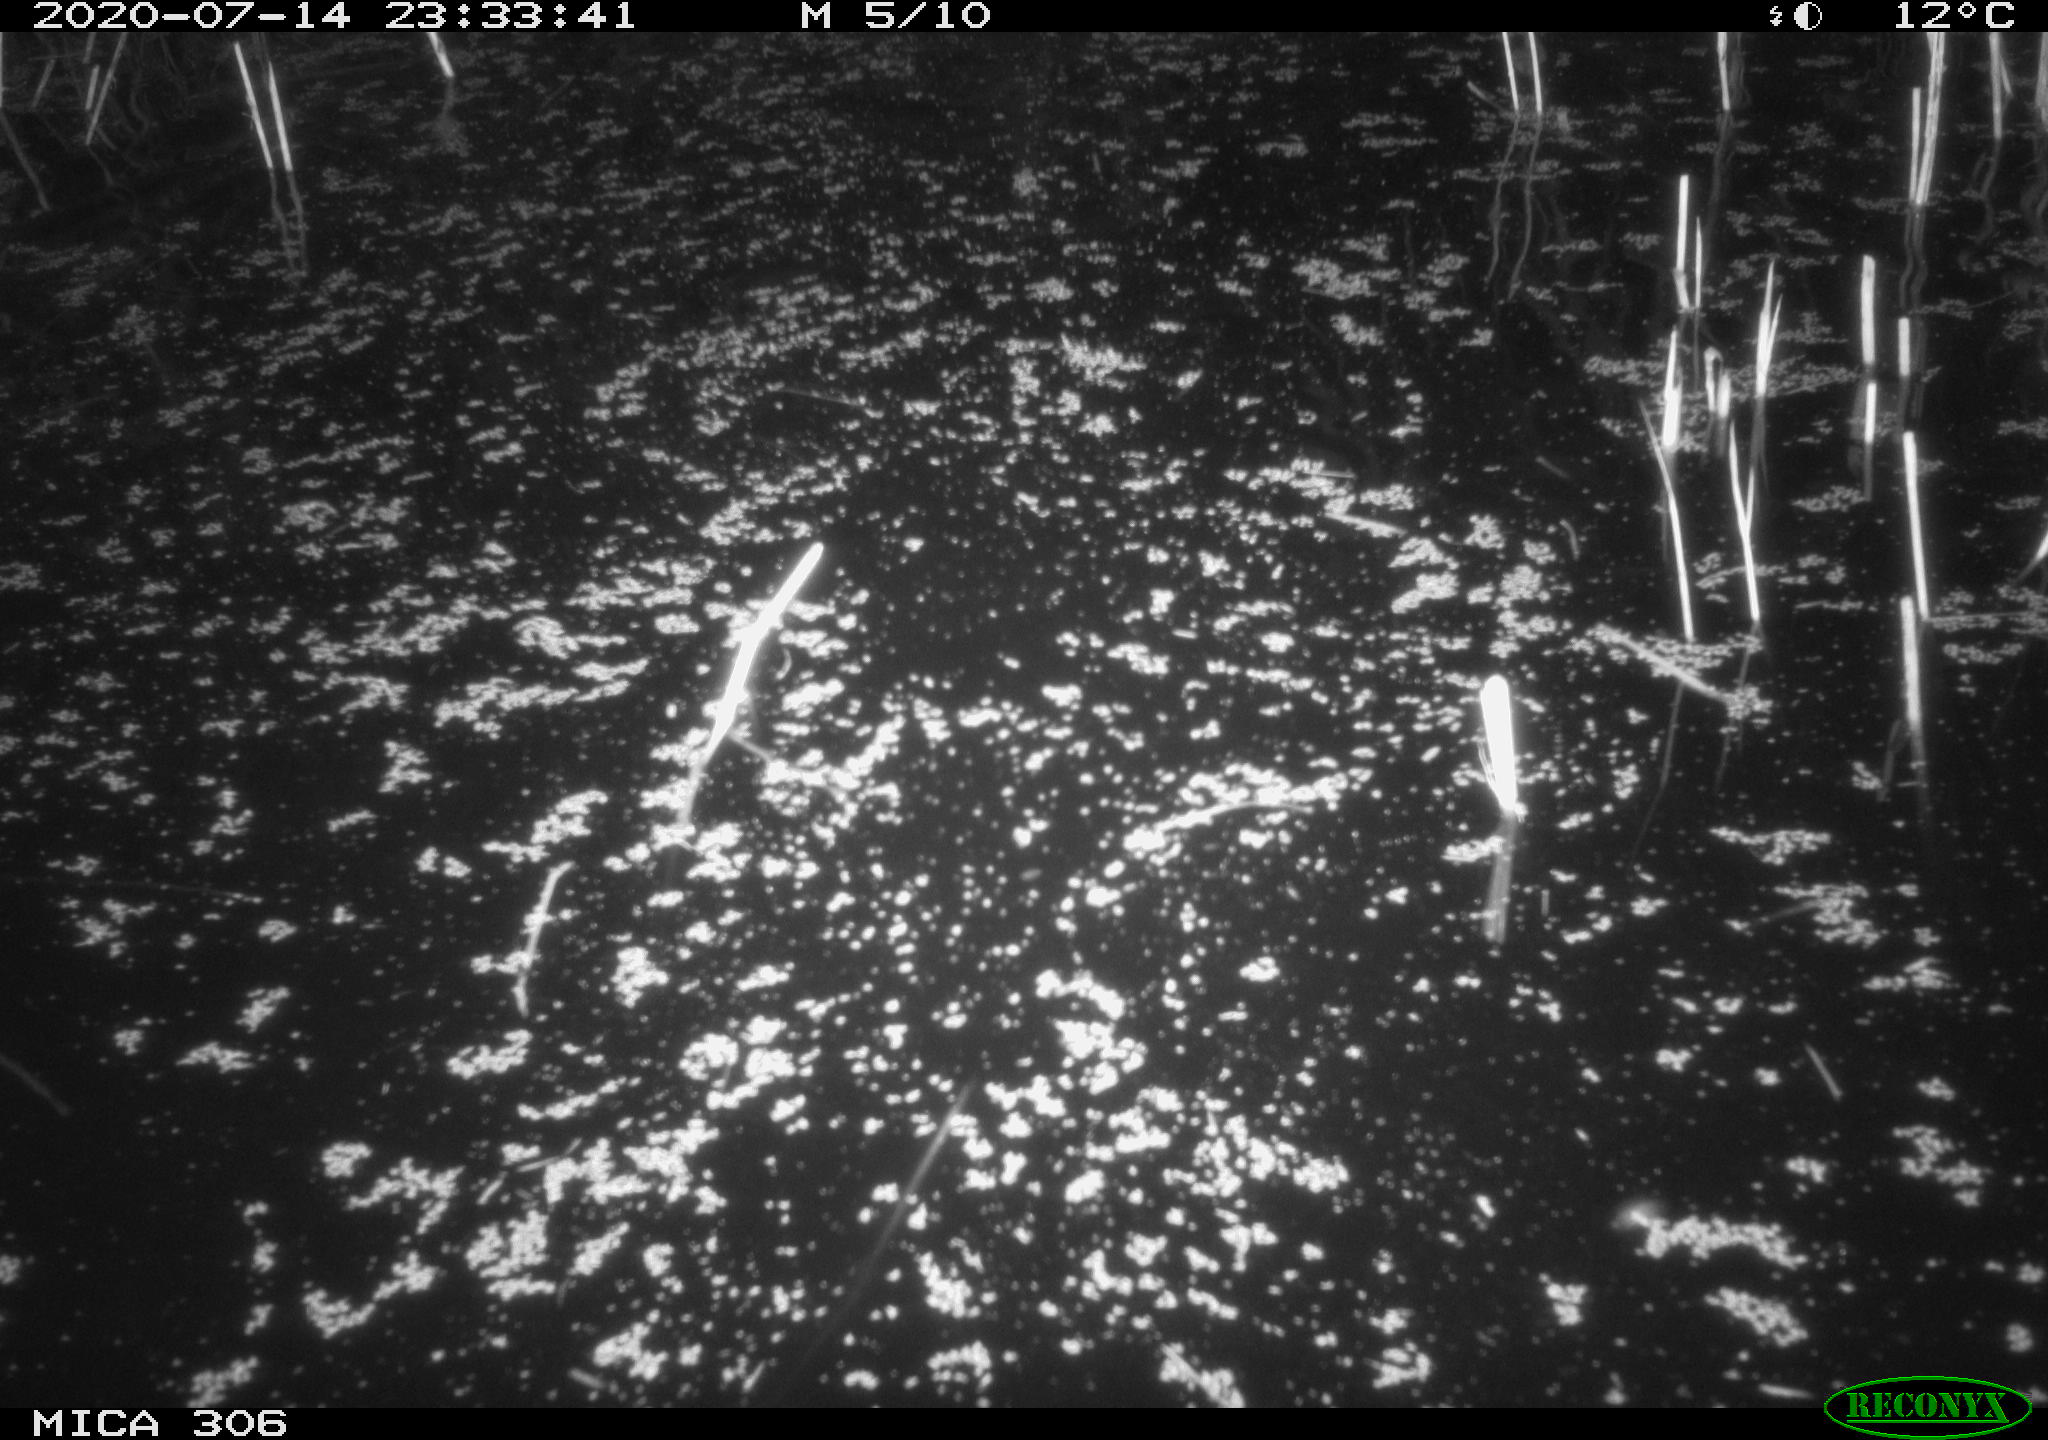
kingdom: Animalia
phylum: Chordata
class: Mammalia
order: Rodentia
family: Cricetidae
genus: Ondatra
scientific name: Ondatra zibethicus
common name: Muskrat
